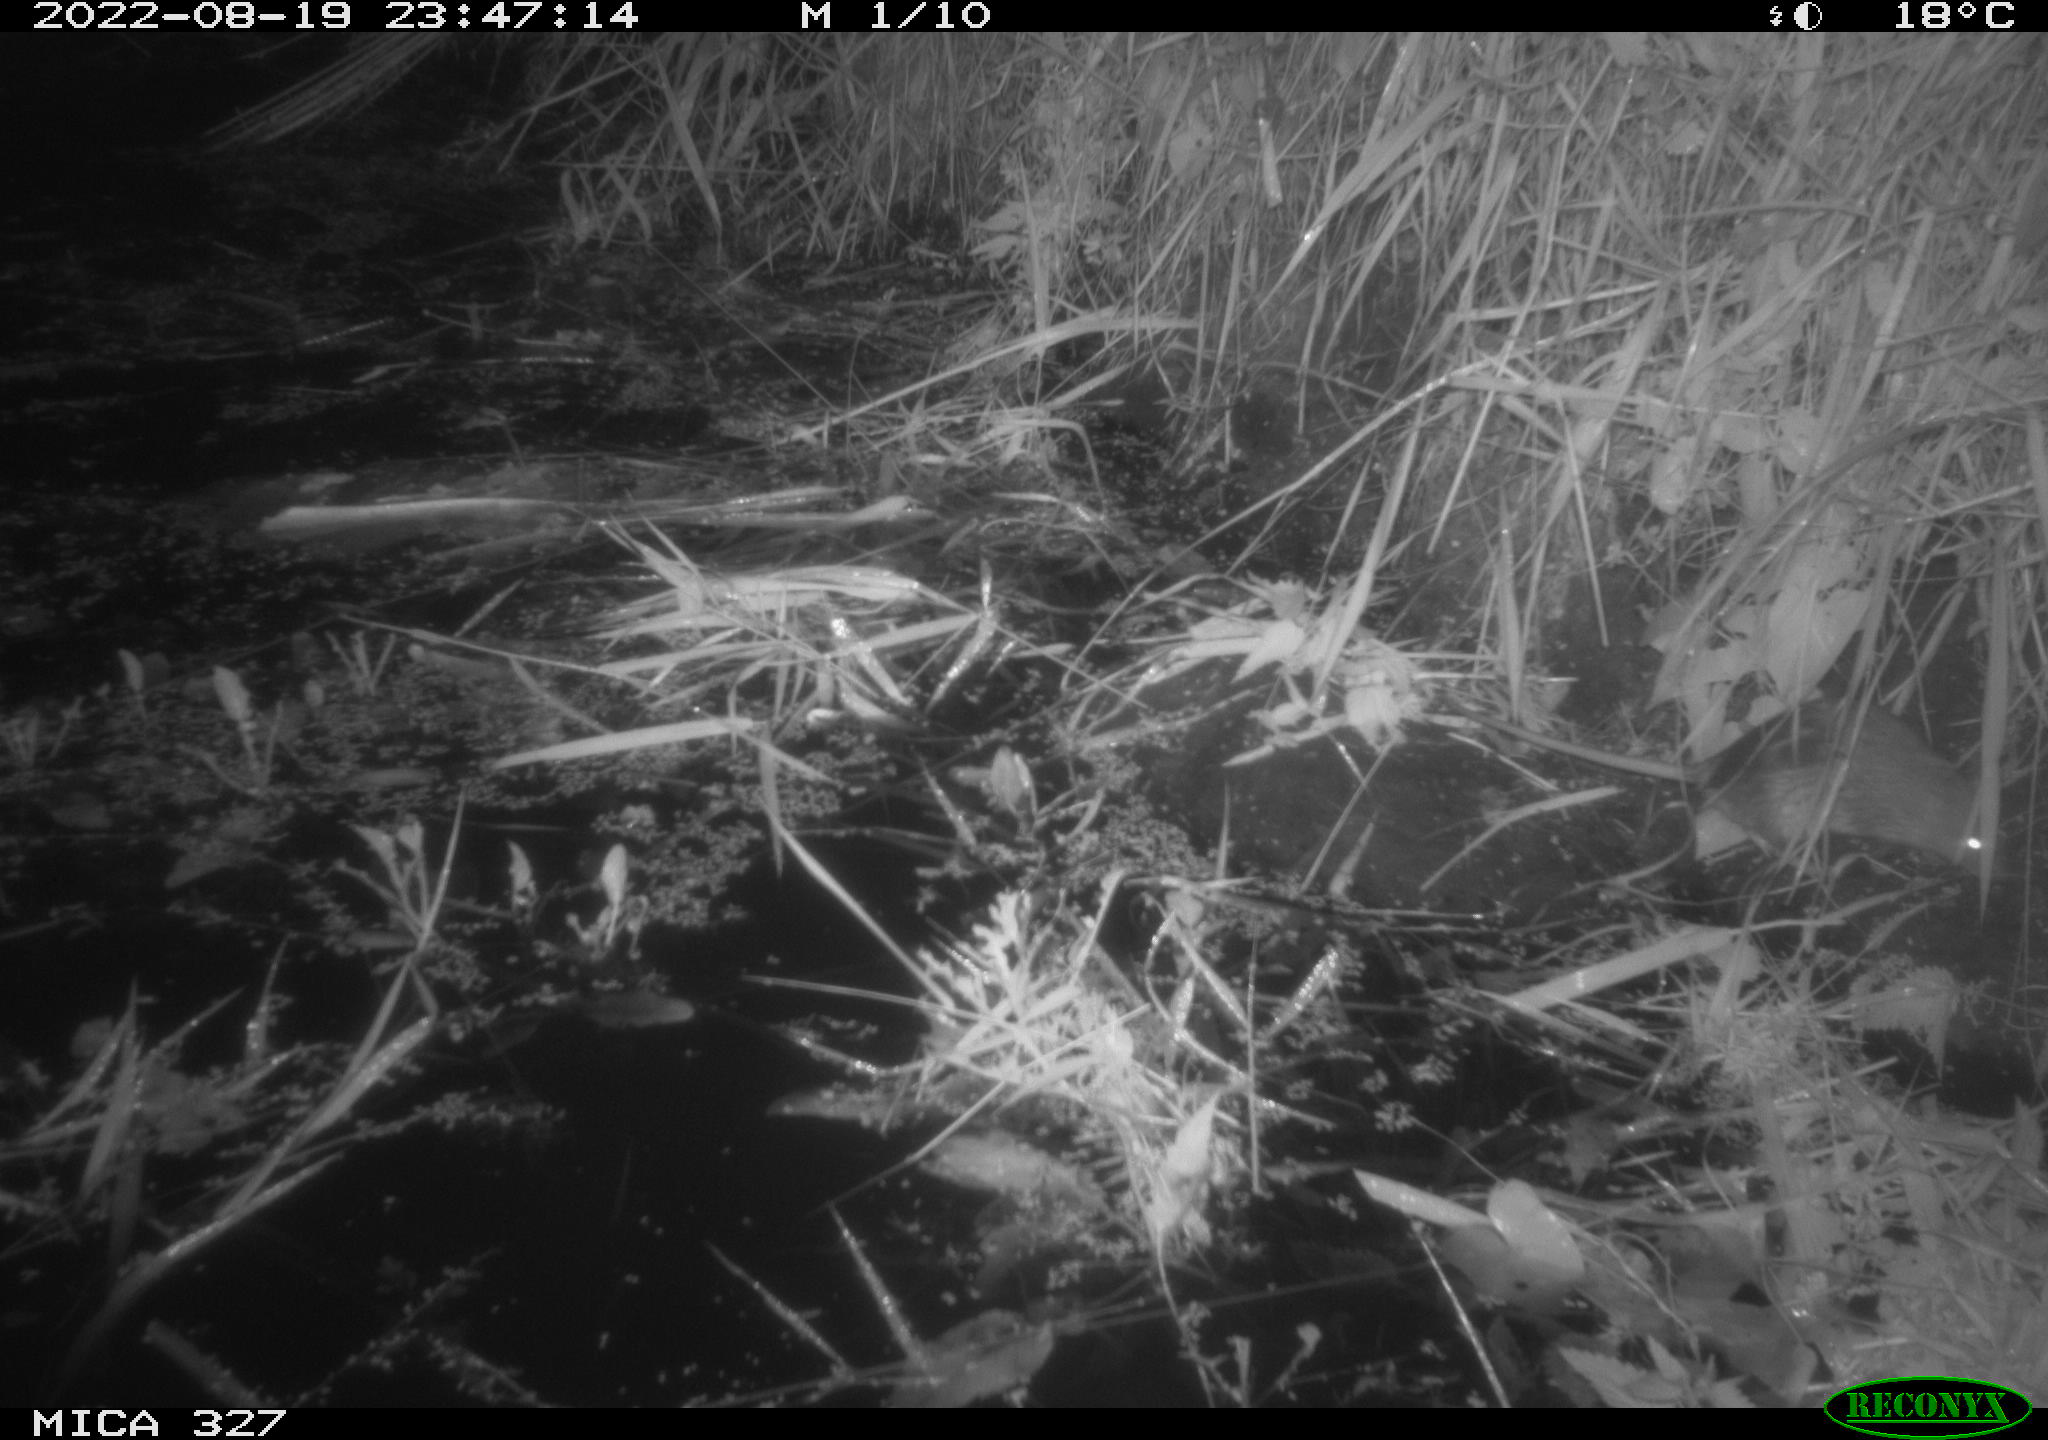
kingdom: Animalia
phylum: Chordata
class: Mammalia
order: Rodentia
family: Muridae
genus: Rattus
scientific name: Rattus norvegicus
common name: Brown rat
